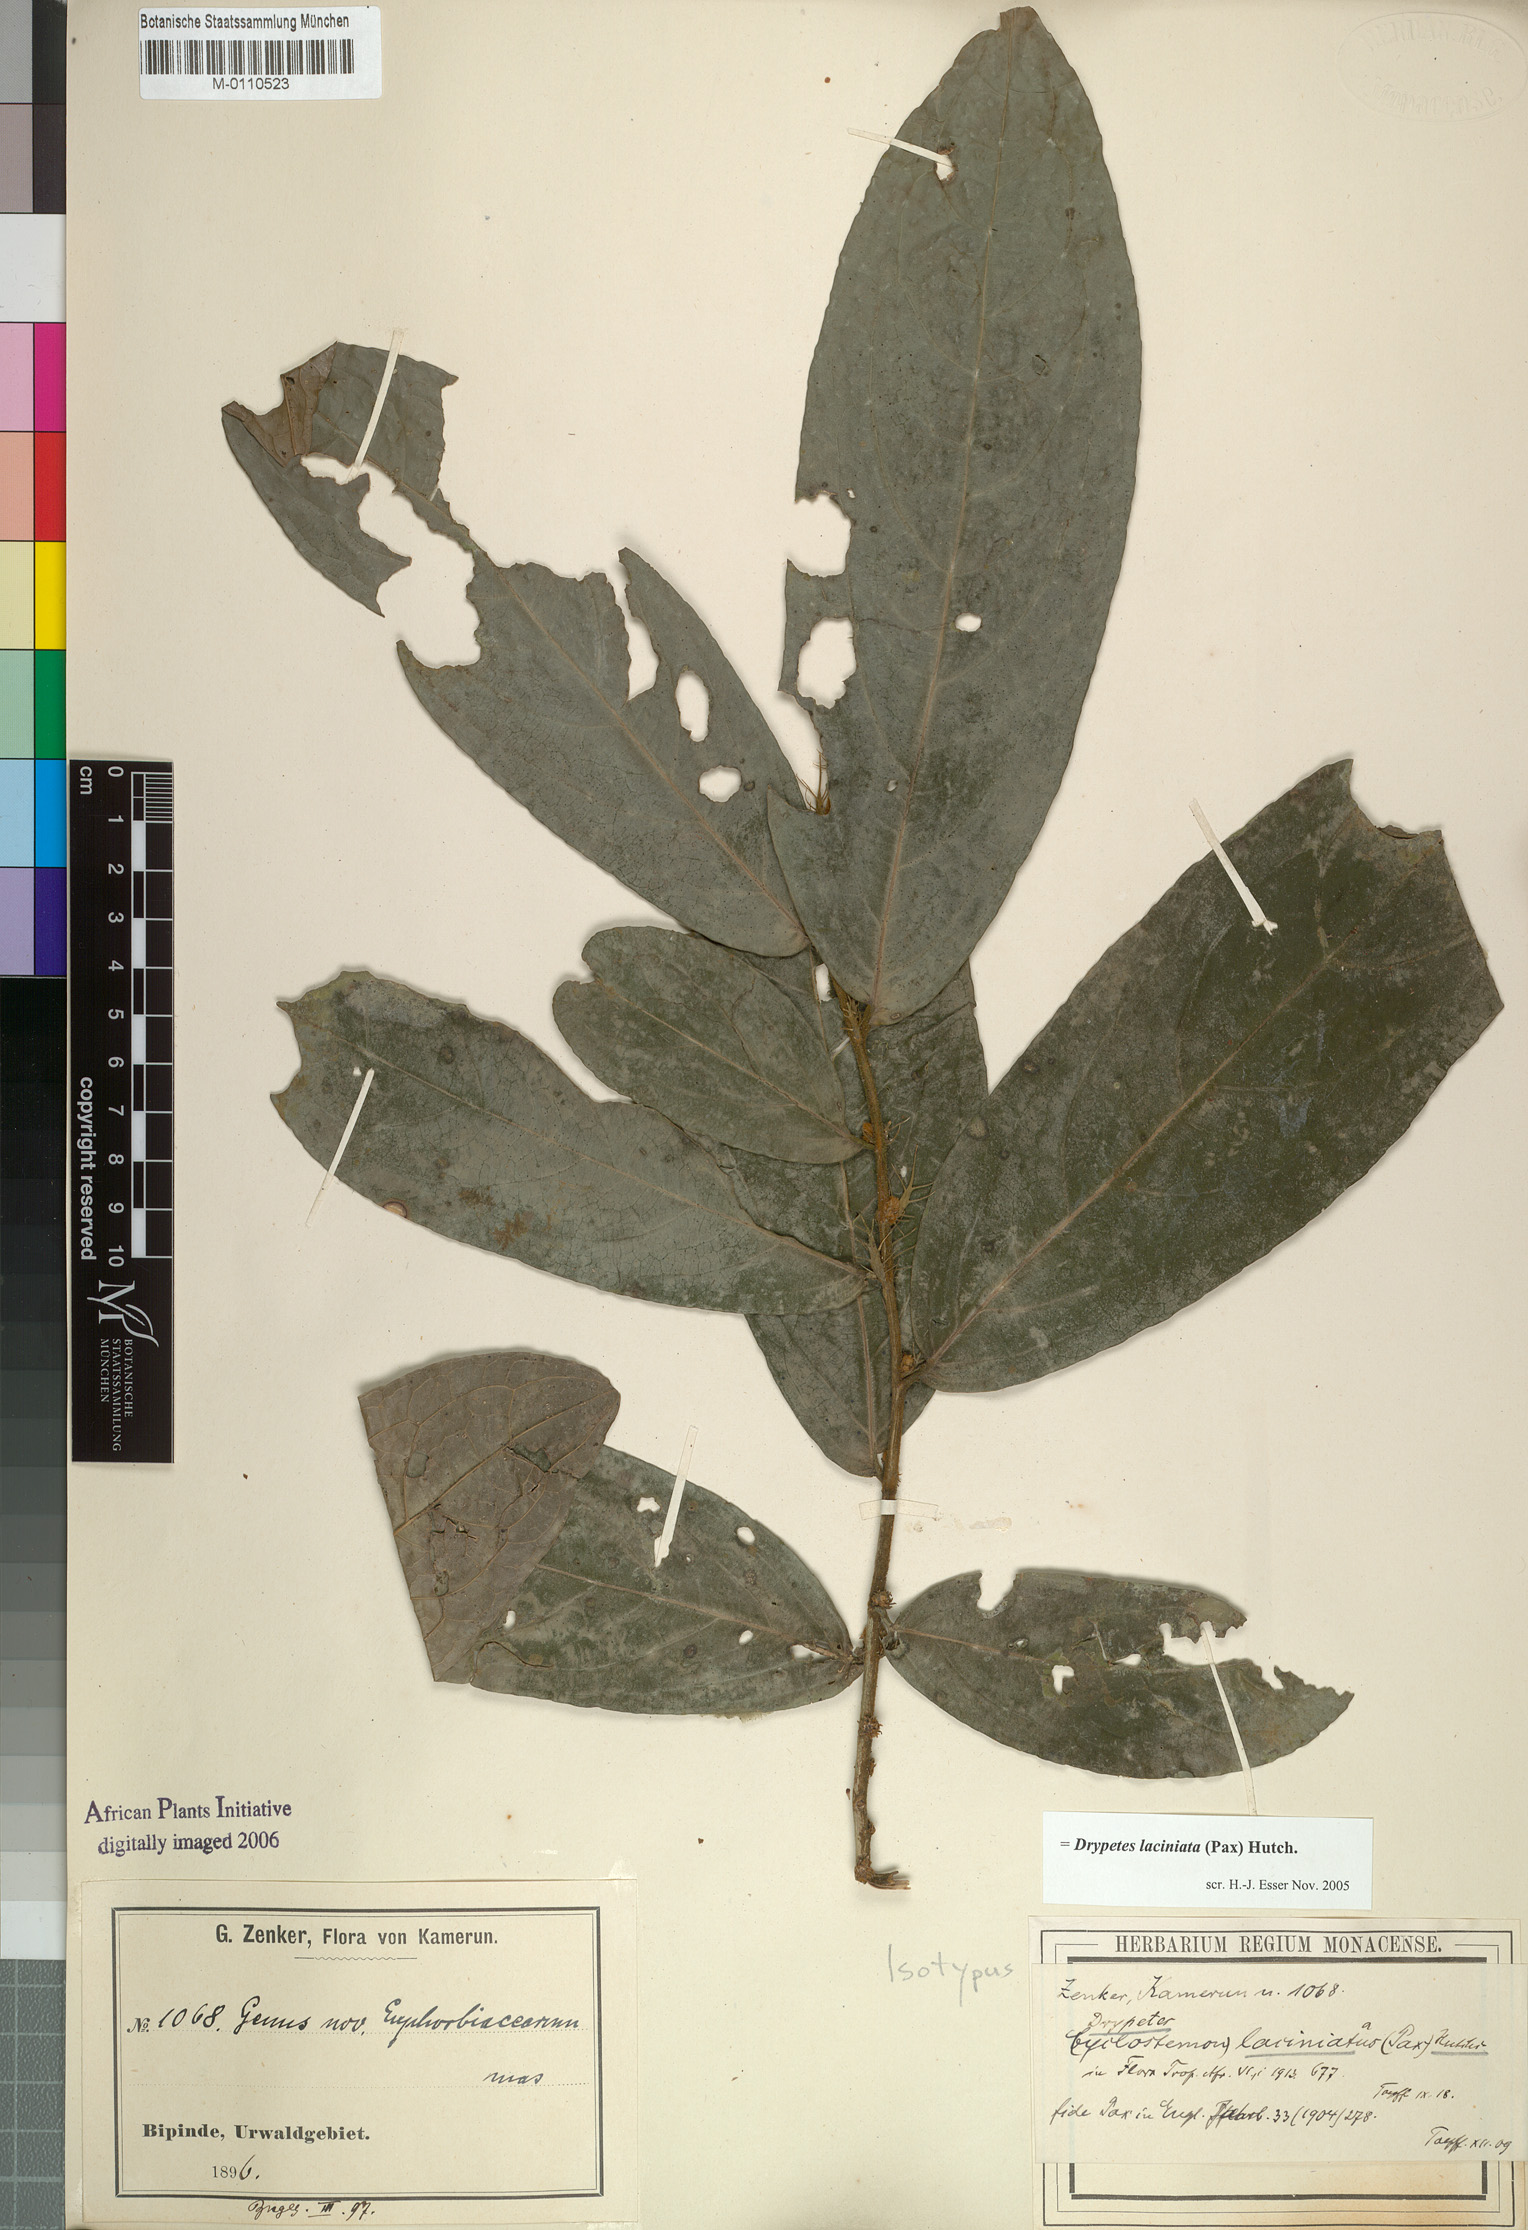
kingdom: Plantae
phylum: Tracheophyta
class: Magnoliopsida
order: Malpighiales
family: Putranjivaceae
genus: Drypetes
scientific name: Drypetes laciniata
